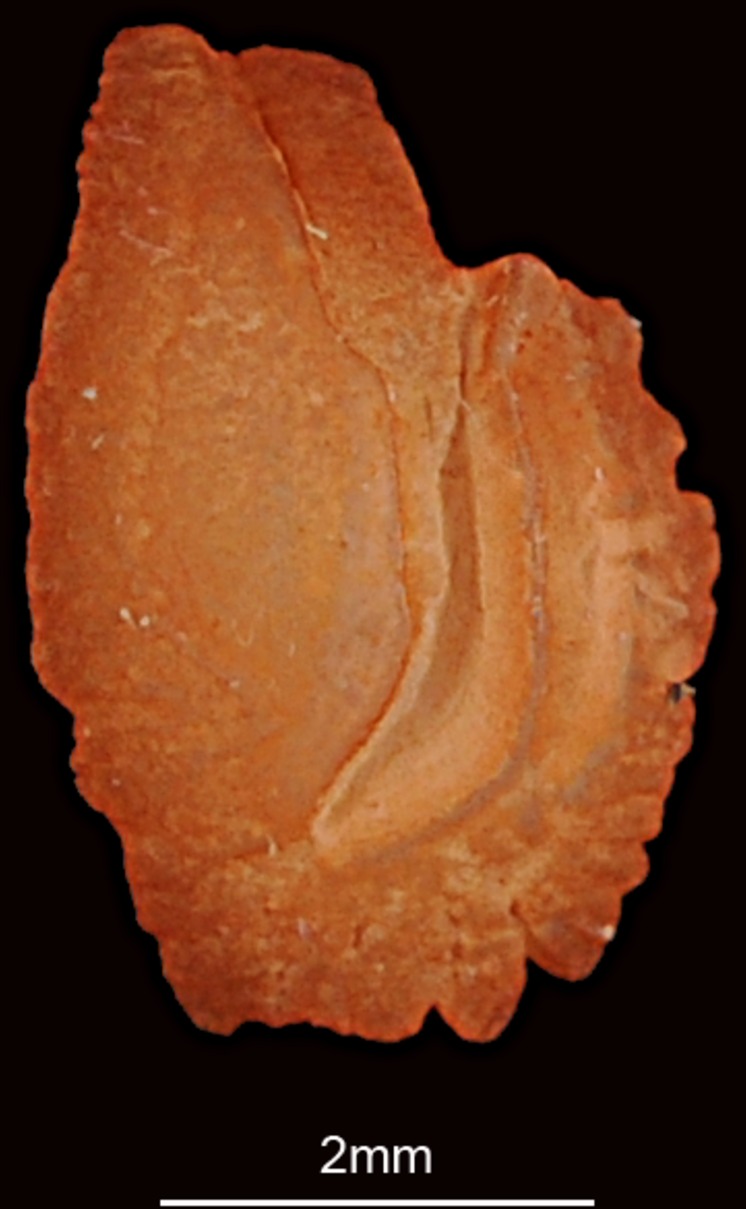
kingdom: Animalia
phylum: Chordata
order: Perciformes
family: Lethrinidae
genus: Lethrinus
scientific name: Lethrinus microdon
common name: Smalltooth emperor
